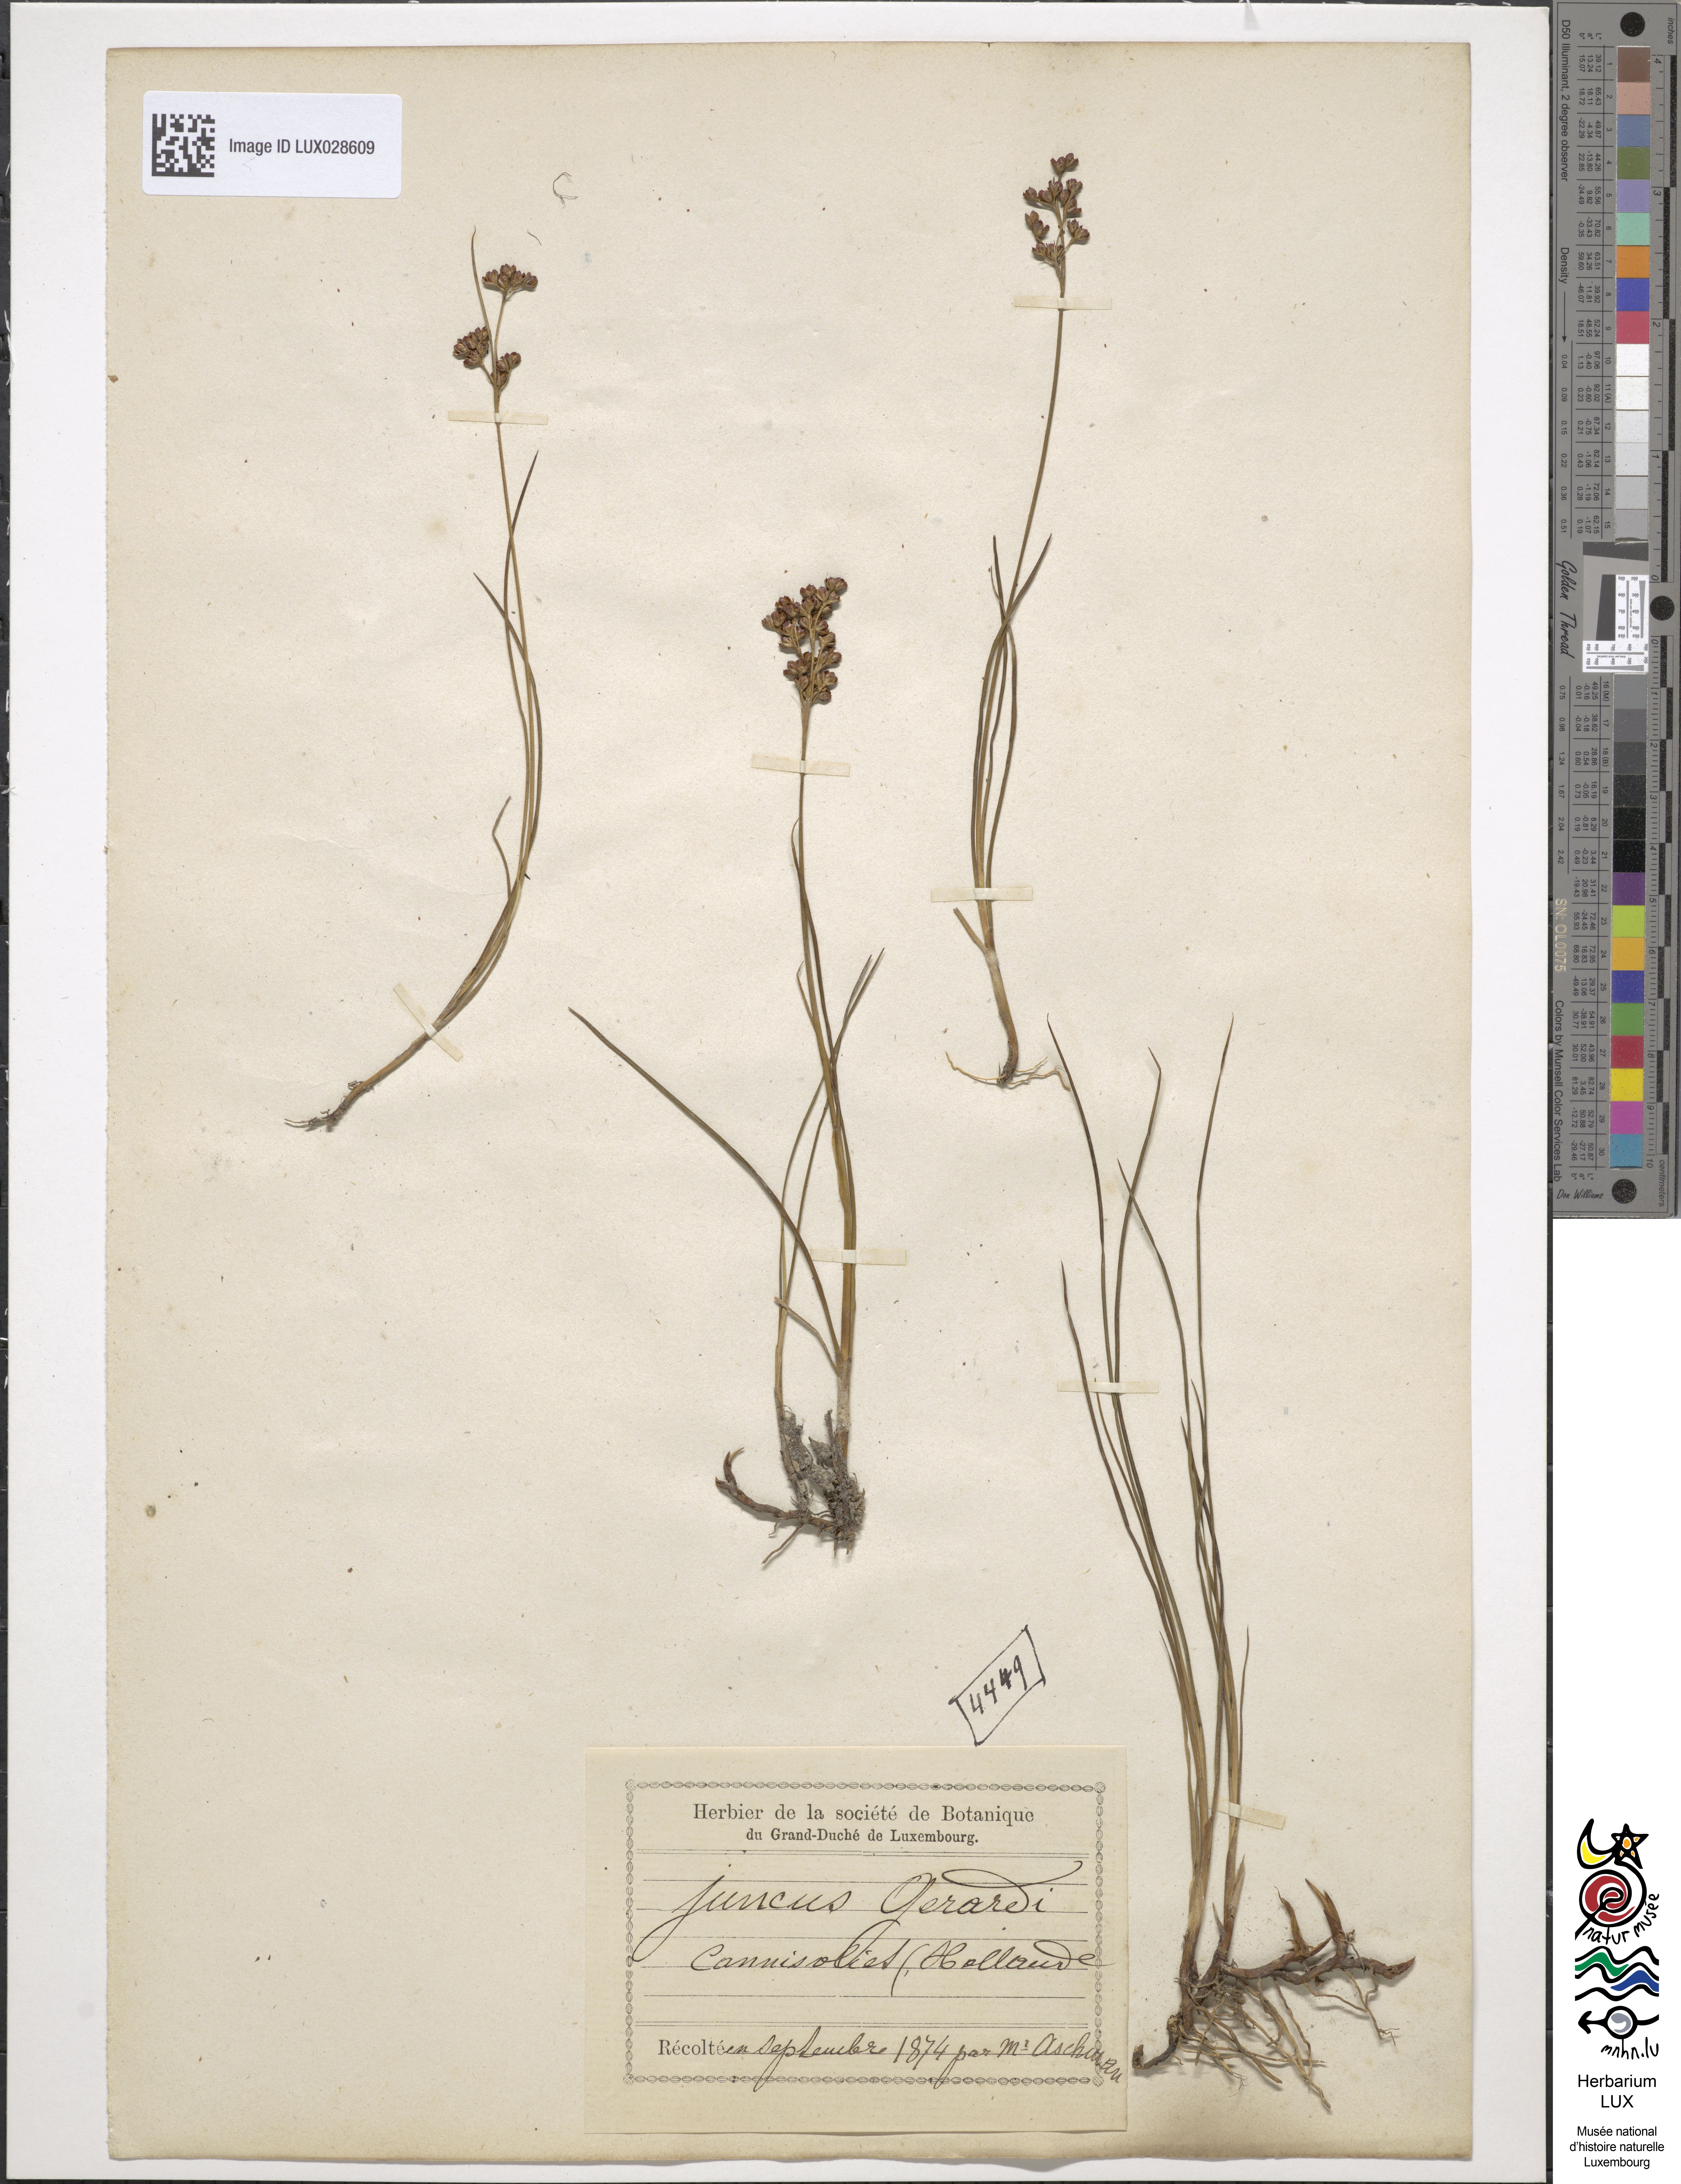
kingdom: Plantae
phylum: Tracheophyta
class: Liliopsida
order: Poales
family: Juncaceae
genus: Juncus
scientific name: Juncus gerardi
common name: Saltmarsh rush
